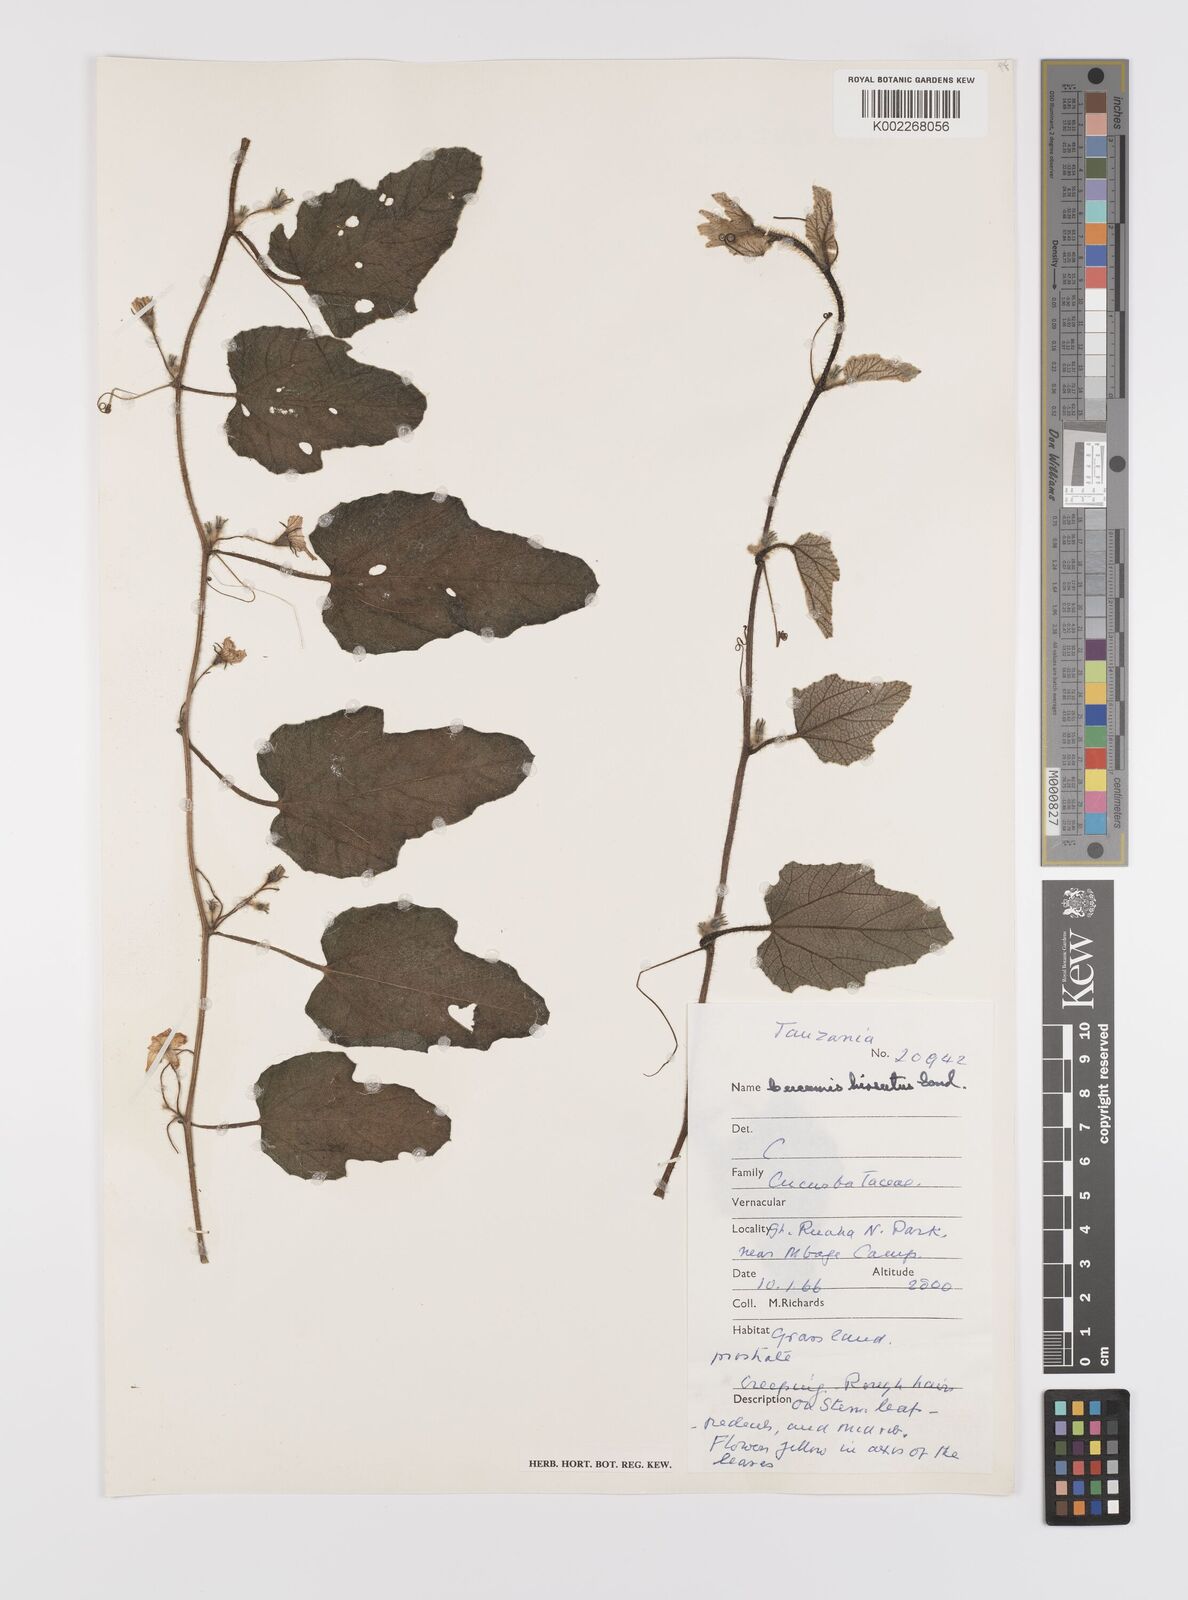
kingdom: Plantae
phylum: Tracheophyta
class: Magnoliopsida
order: Cucurbitales
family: Cucurbitaceae
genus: Cucumis
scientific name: Cucumis hirsutus
